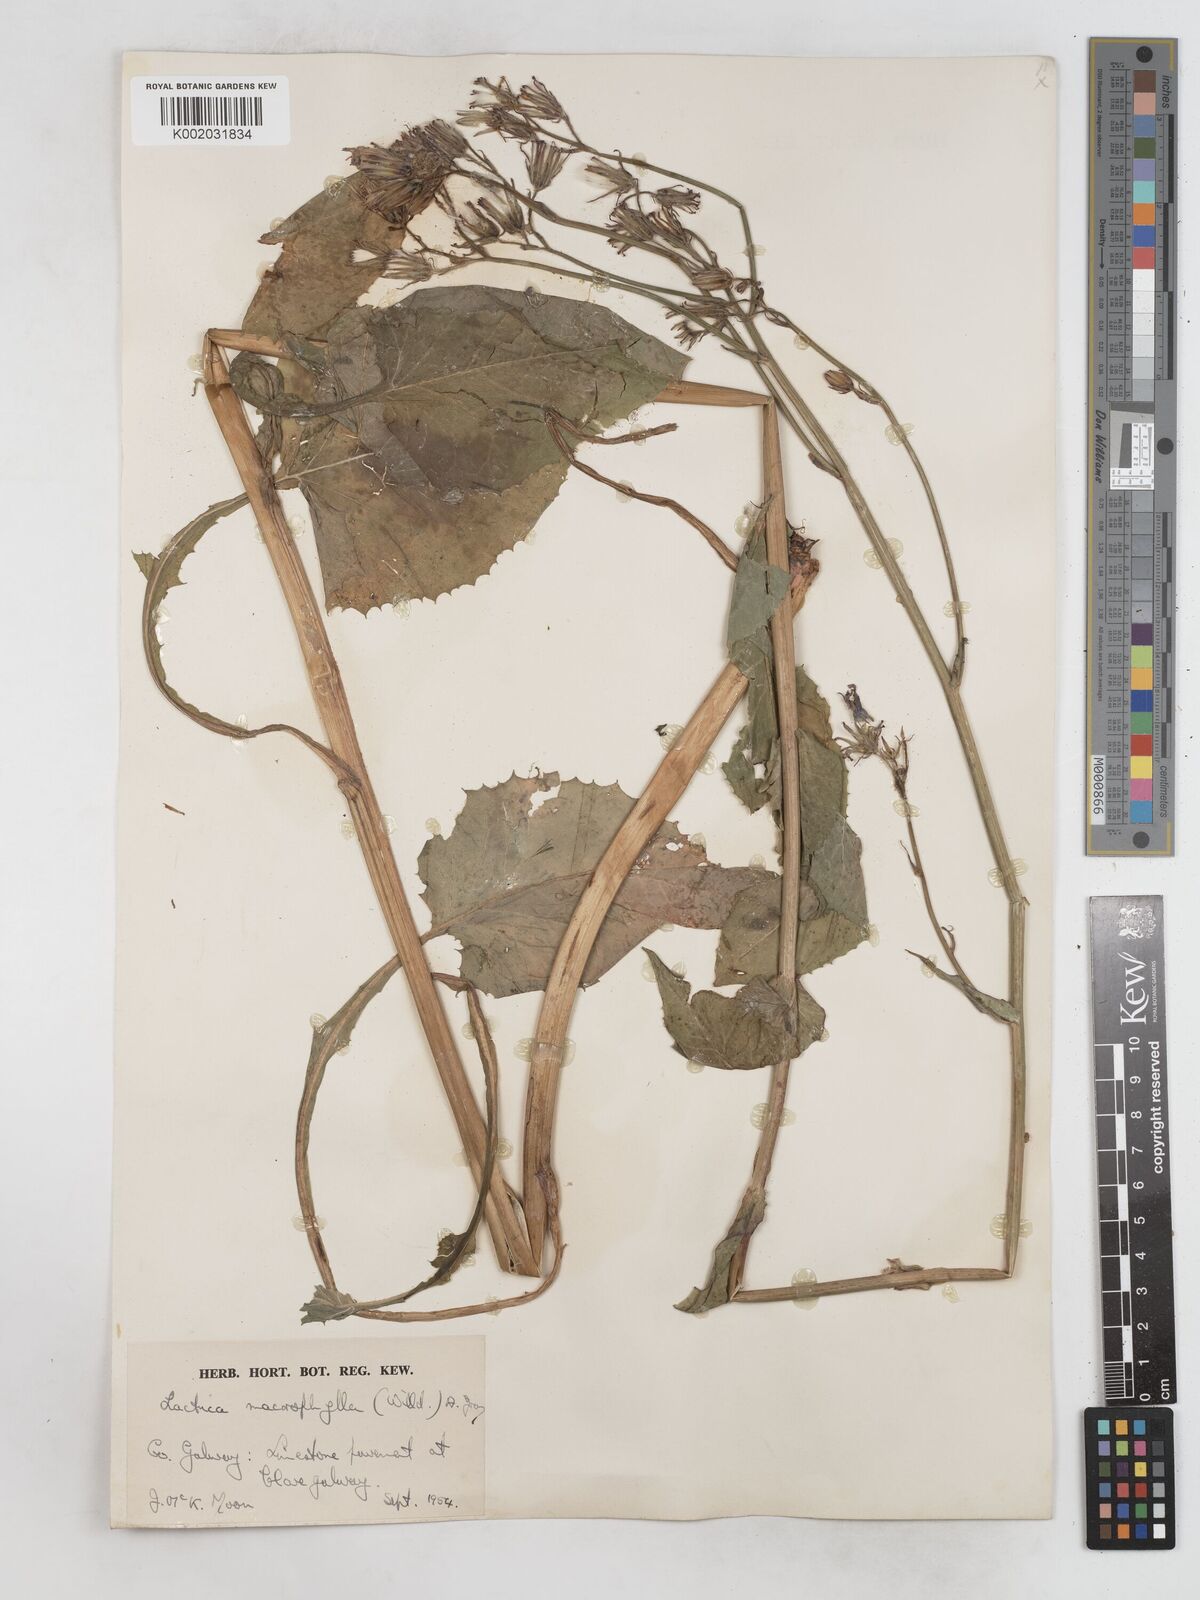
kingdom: Plantae
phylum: Tracheophyta
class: Magnoliopsida
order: Asterales
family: Asteraceae
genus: Lactuca
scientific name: Lactuca macrophylla
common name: Common blue-sow-thistle
